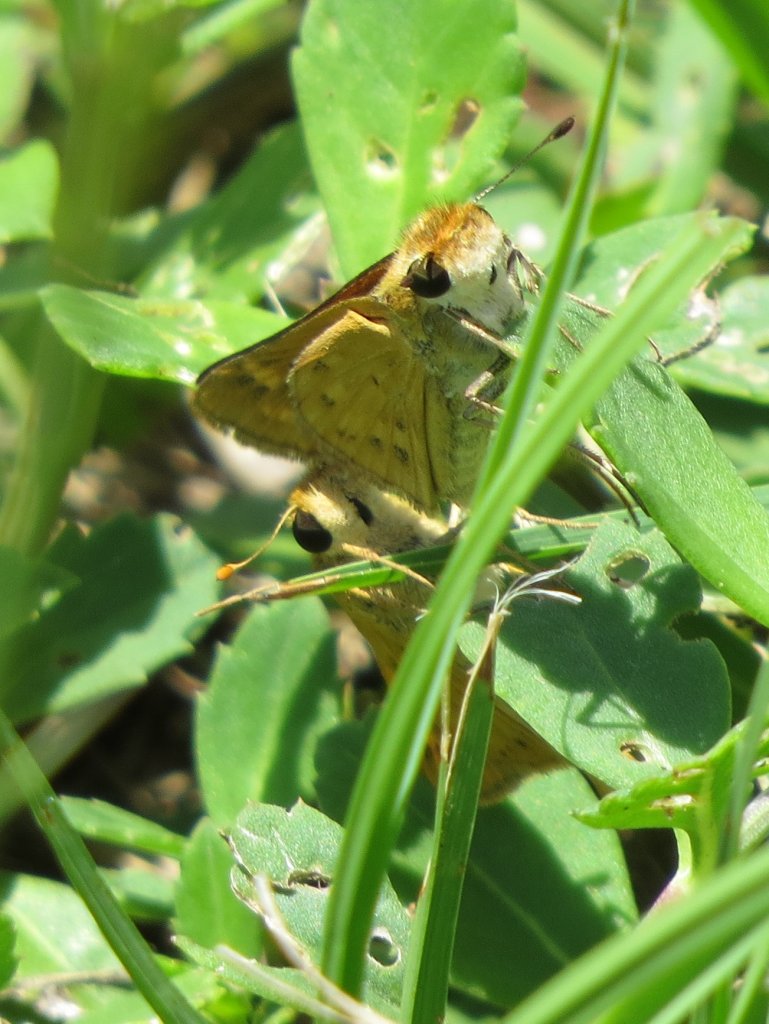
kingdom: Animalia
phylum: Arthropoda
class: Insecta
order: Lepidoptera
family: Hesperiidae
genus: Hylephila
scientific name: Hylephila phyleus
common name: Fiery Skipper
